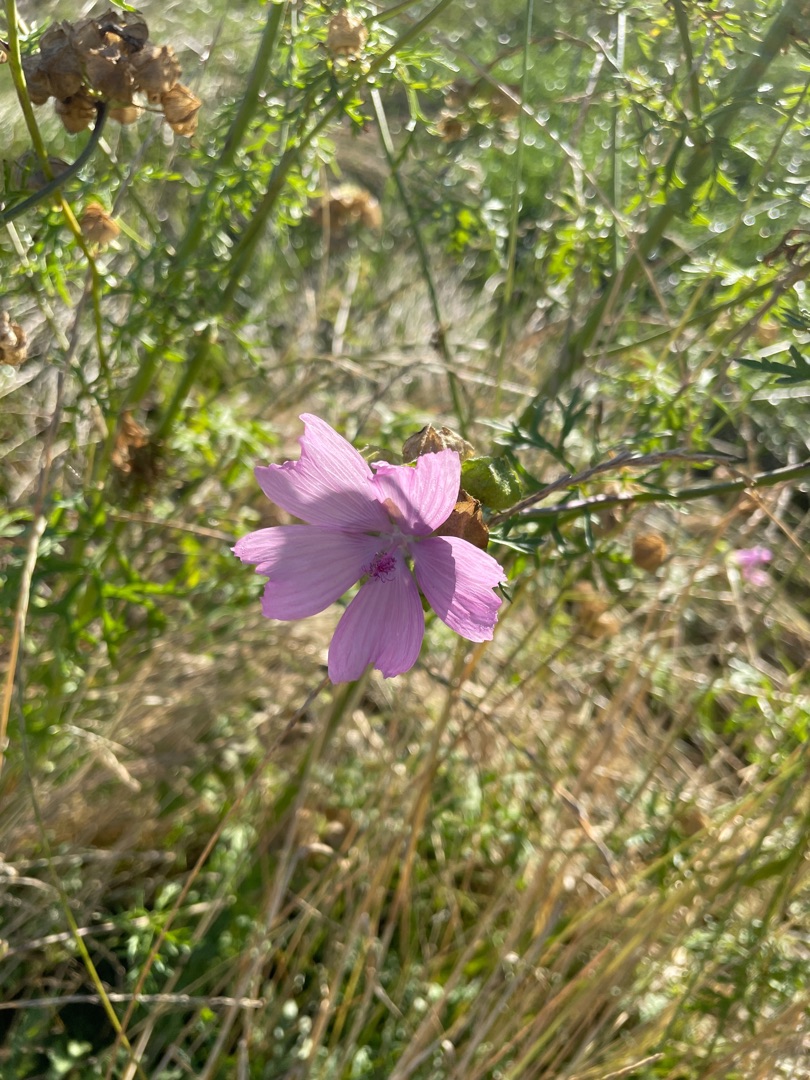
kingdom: Plantae
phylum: Tracheophyta
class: Magnoliopsida
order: Malvales
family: Malvaceae
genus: Malva
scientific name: Malva moschata
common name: Moskus-katost
